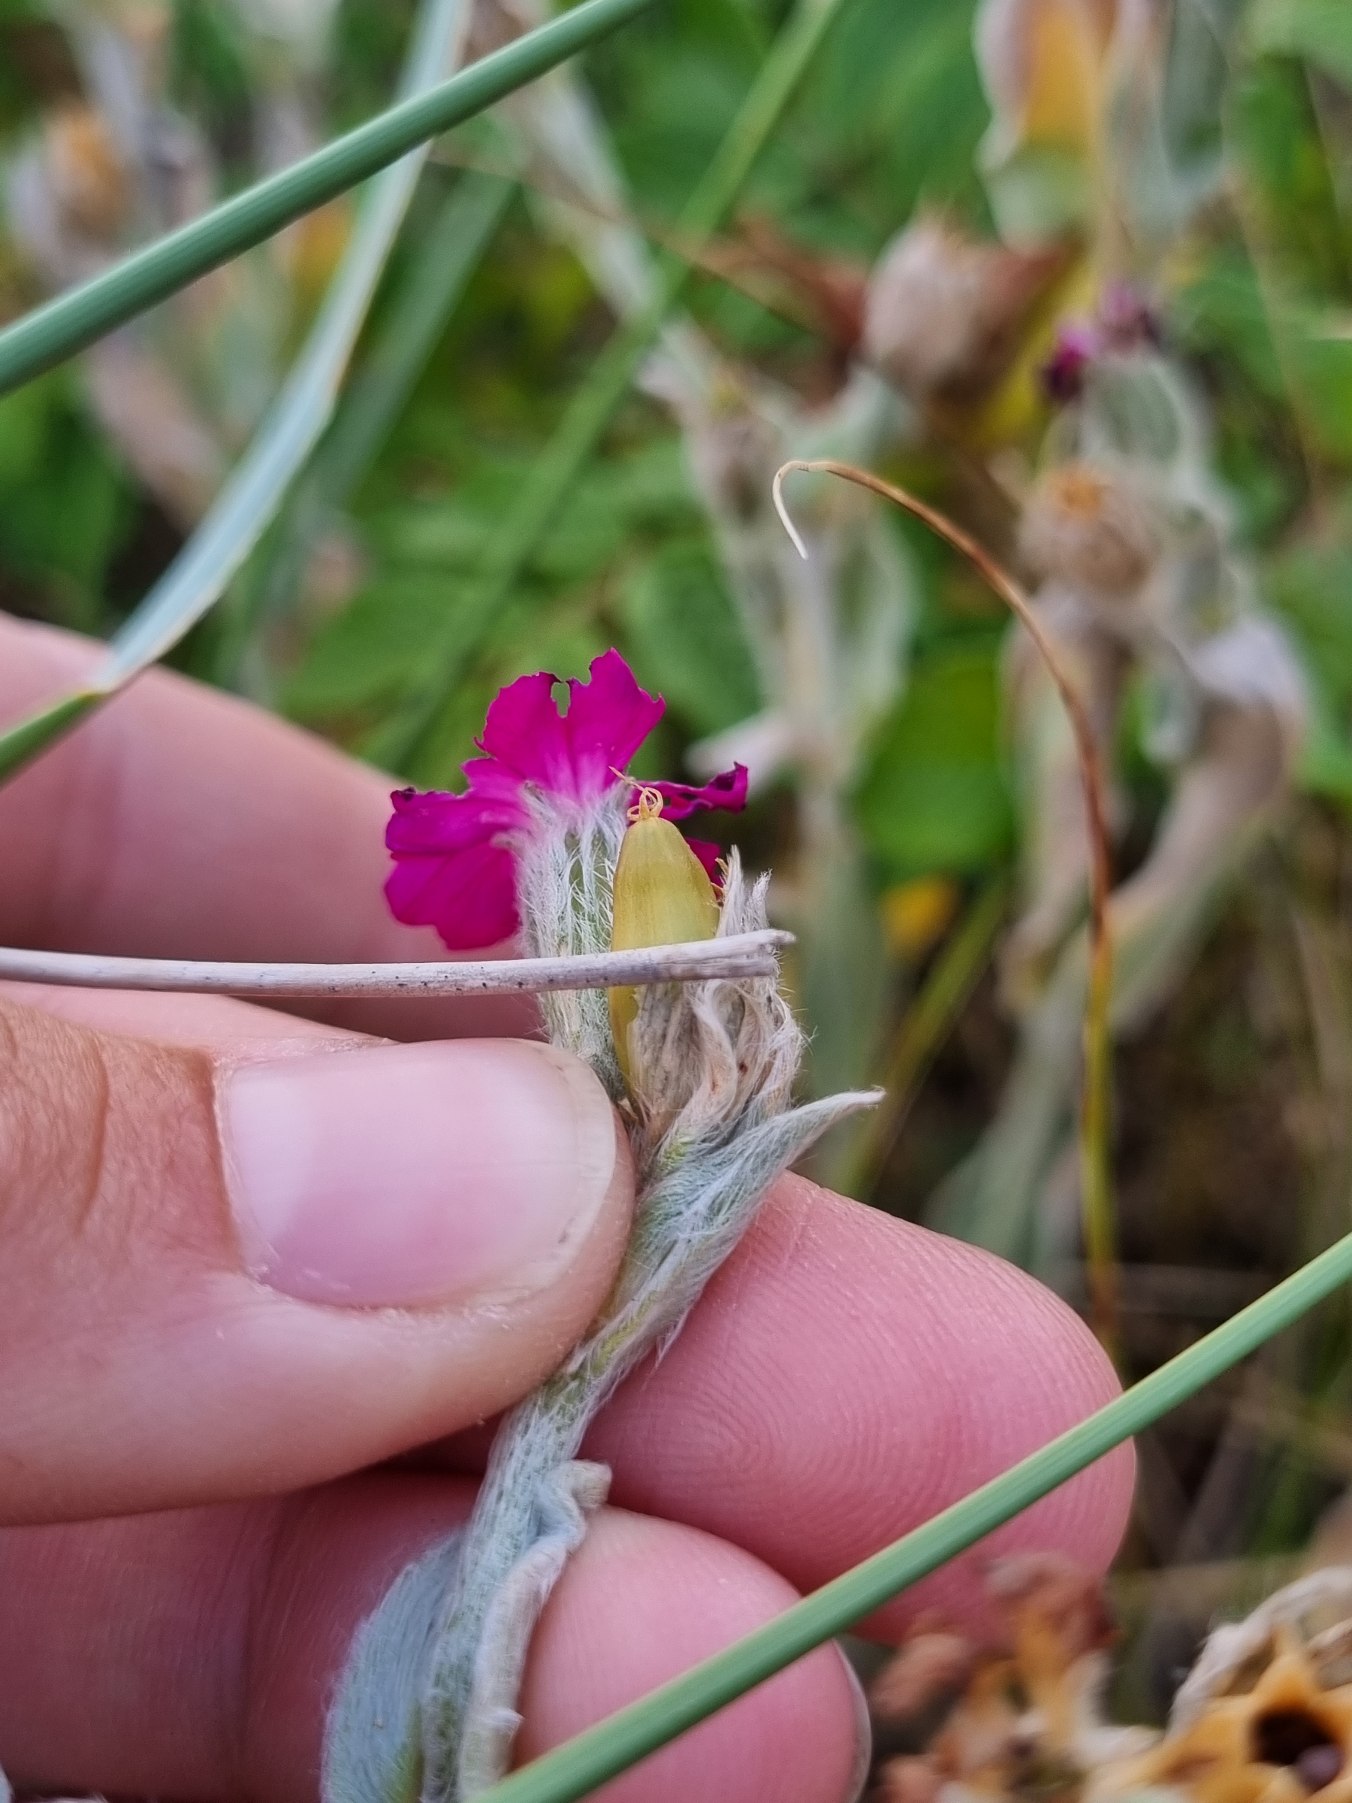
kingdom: Plantae
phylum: Tracheophyta
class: Magnoliopsida
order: Caryophyllales
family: Caryophyllaceae
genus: Silene
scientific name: Silene coronaria
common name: Fiksernellike
